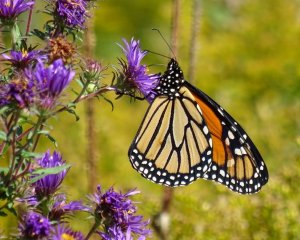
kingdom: Animalia
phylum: Arthropoda
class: Insecta
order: Lepidoptera
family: Nymphalidae
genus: Danaus
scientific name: Danaus plexippus
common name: Monarch
